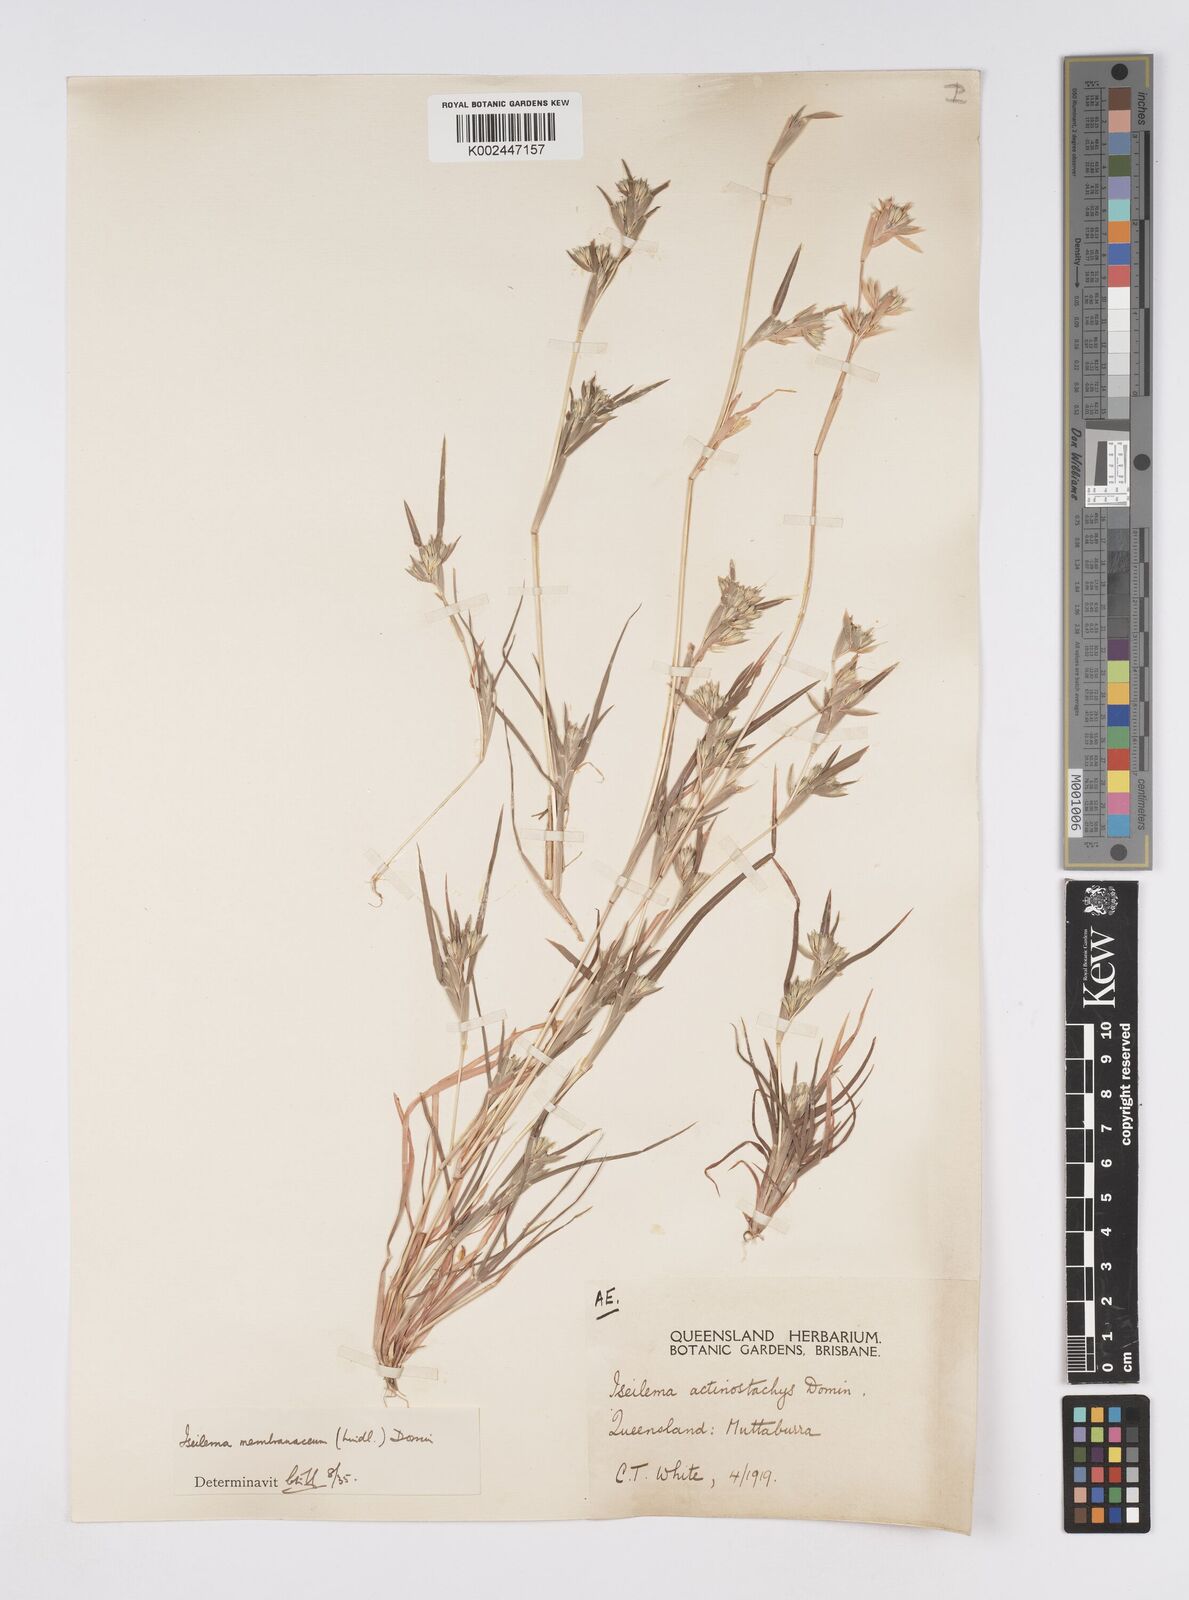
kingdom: Plantae
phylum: Tracheophyta
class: Liliopsida
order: Poales
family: Poaceae
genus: Iseilema
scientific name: Iseilema membranaceum
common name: Small flinders grass
